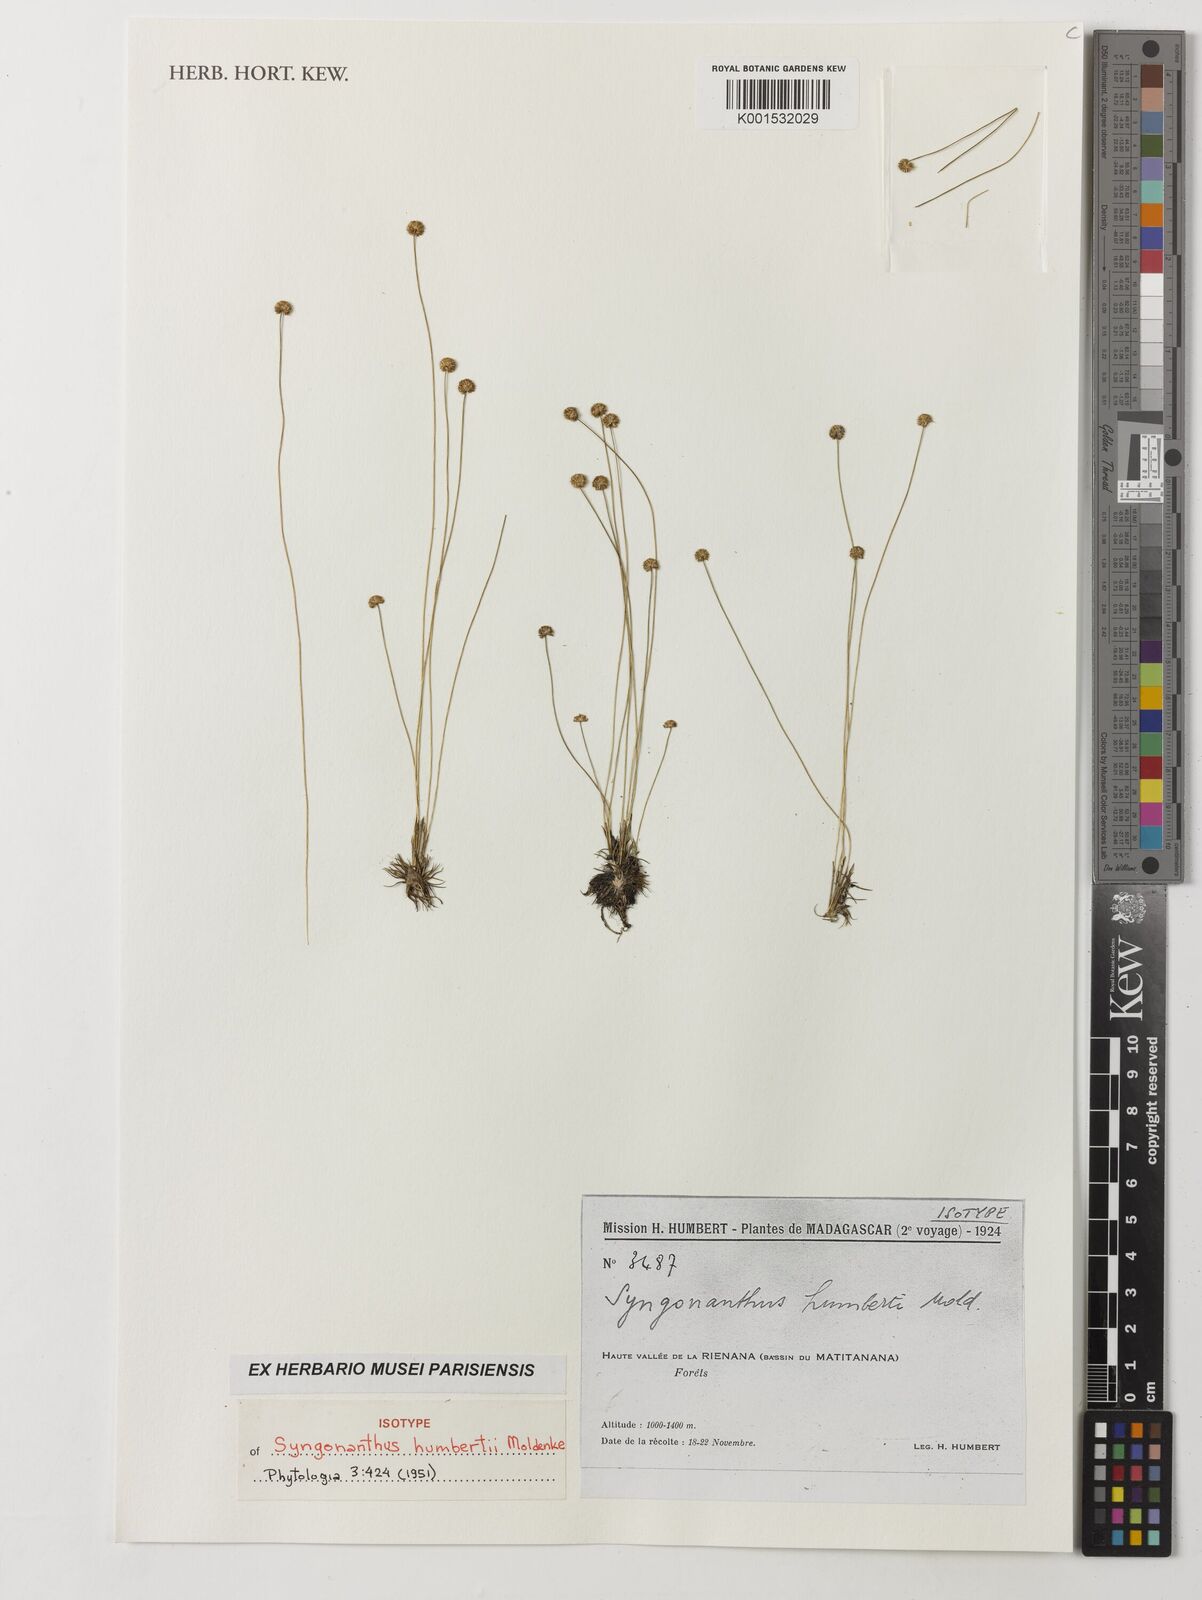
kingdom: Plantae
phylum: Tracheophyta
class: Liliopsida
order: Poales
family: Eriocaulaceae
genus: Syngonanthus
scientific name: Syngonanthus humbertii
